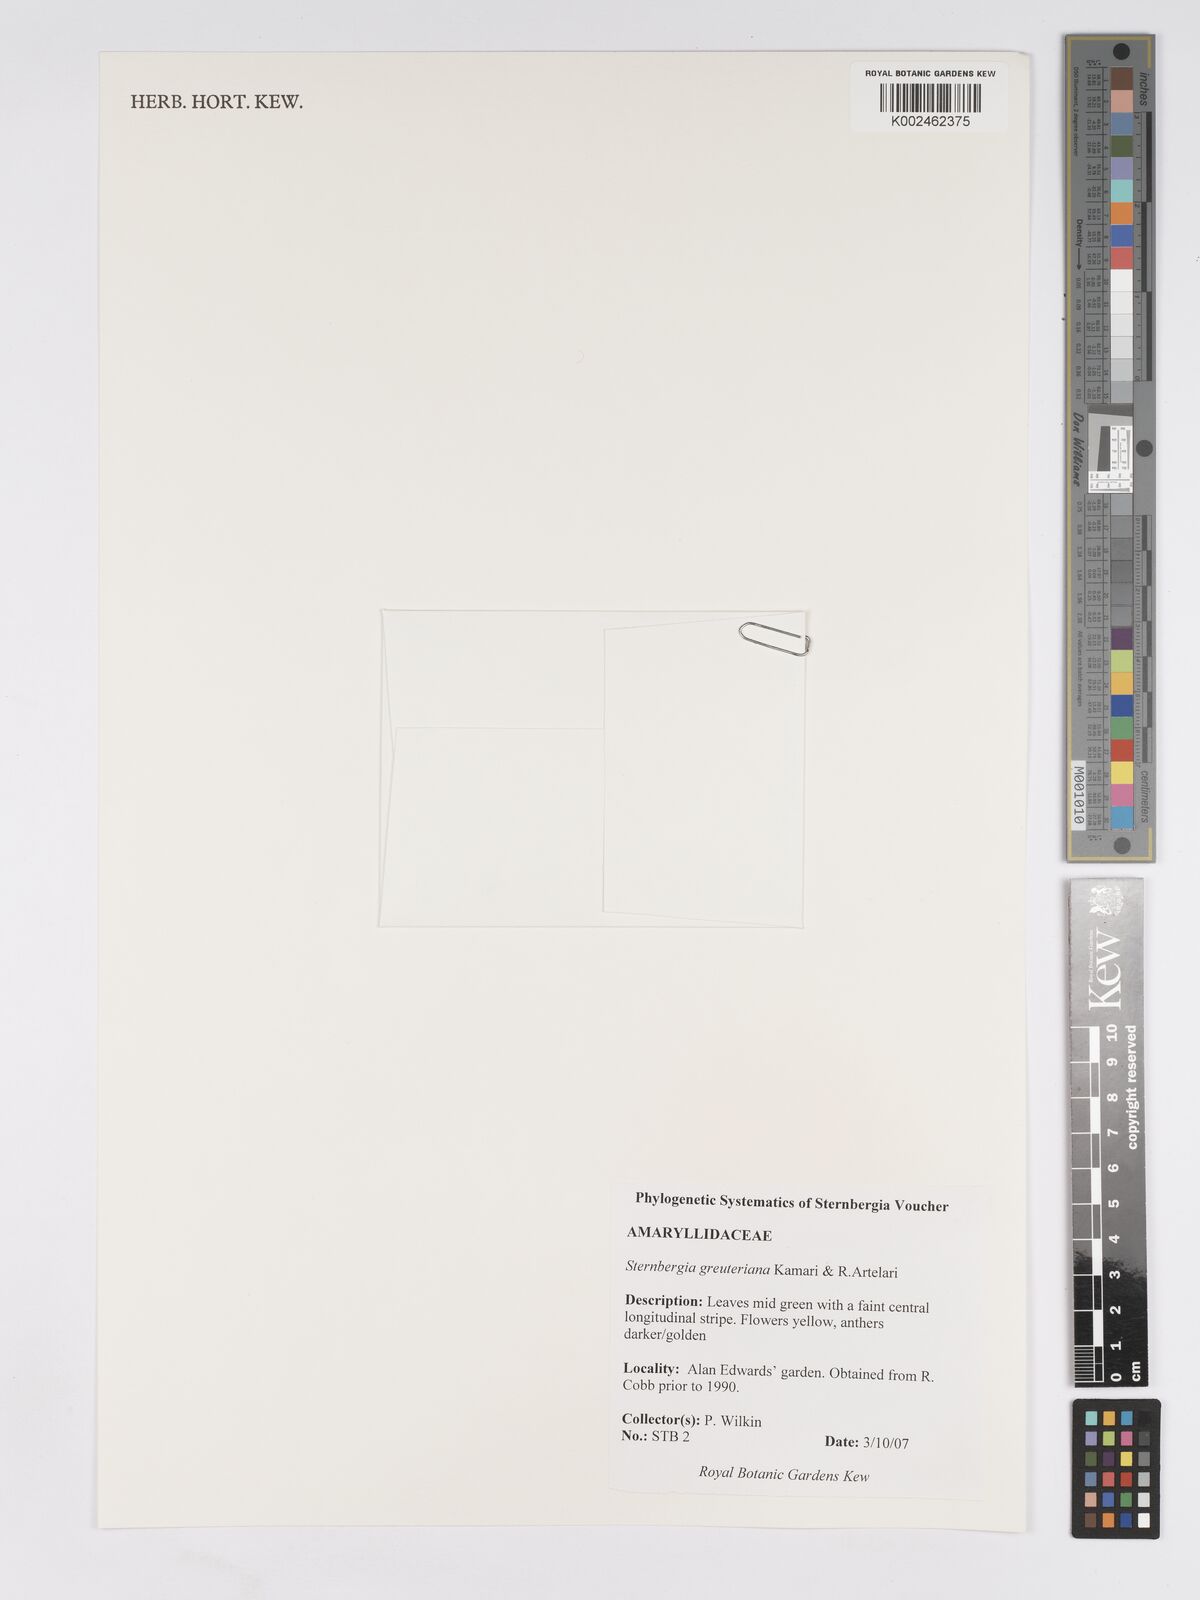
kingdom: Plantae
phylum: Tracheophyta
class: Liliopsida
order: Asparagales
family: Amaryllidaceae
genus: Sternbergia
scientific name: Sternbergia lutea
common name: Winter daffodil
